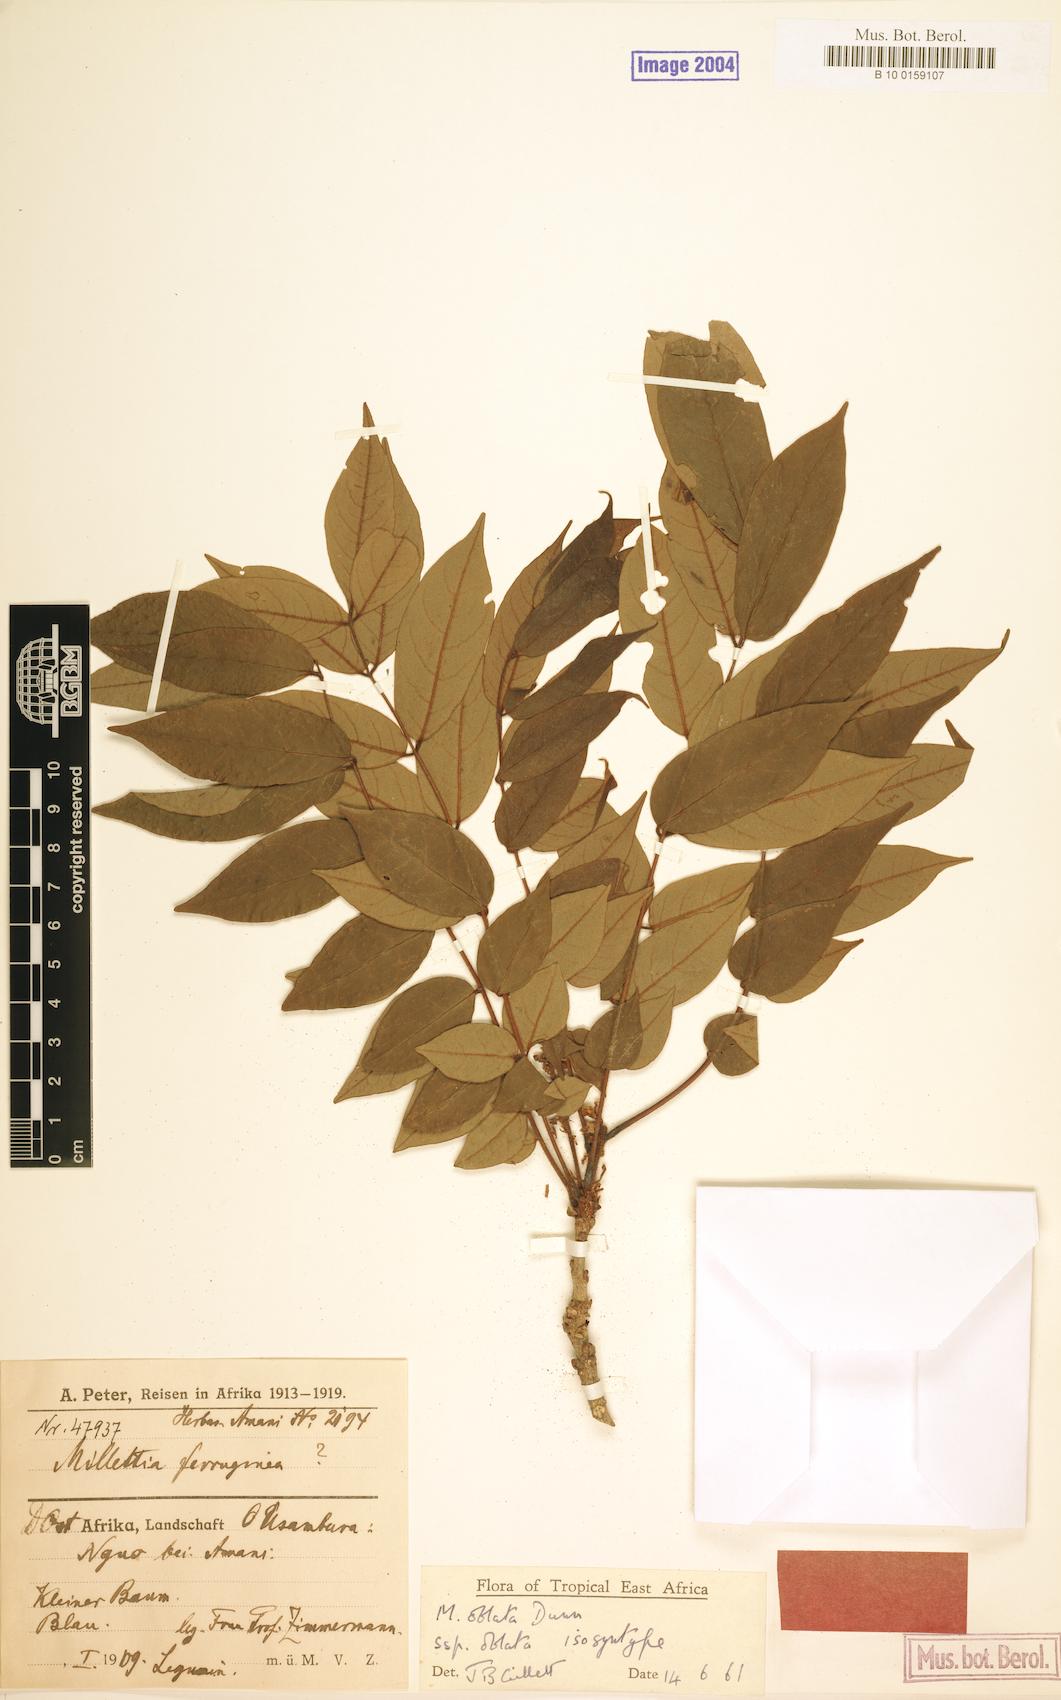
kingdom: Plantae
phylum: Tracheophyta
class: Magnoliopsida
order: Fabales
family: Fabaceae
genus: Millettia
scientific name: Millettia oblata
